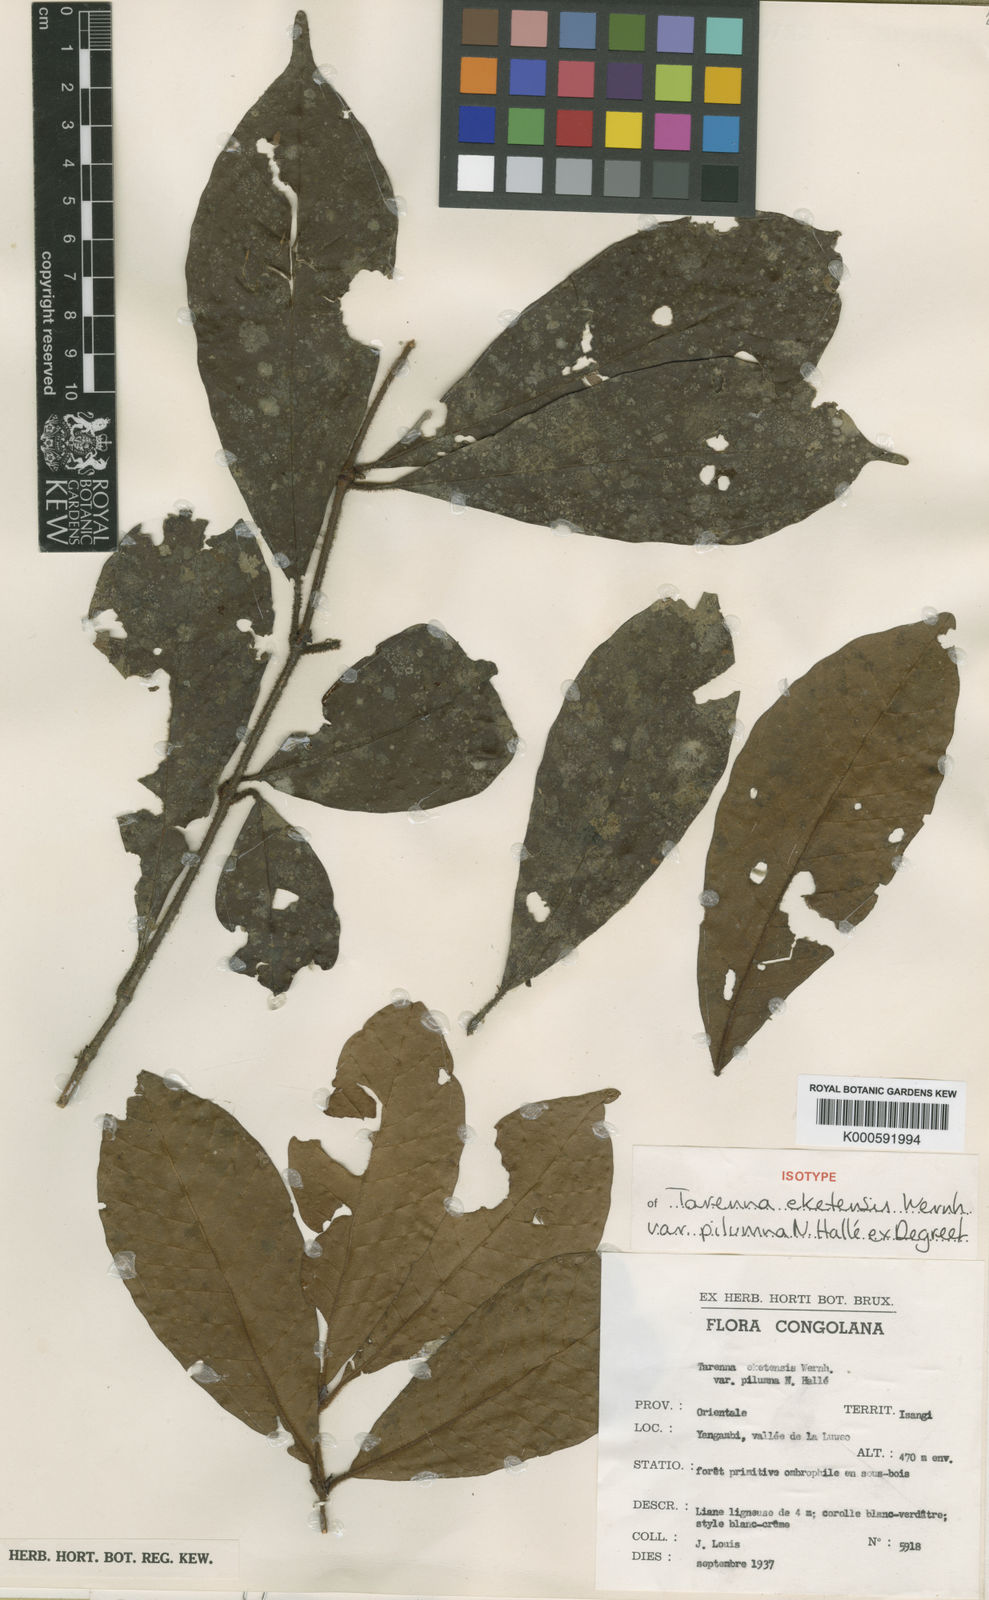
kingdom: Plantae
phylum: Tracheophyta
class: Magnoliopsida
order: Gentianales
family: Rubiaceae
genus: Tarenna
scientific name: Tarenna eketensis
